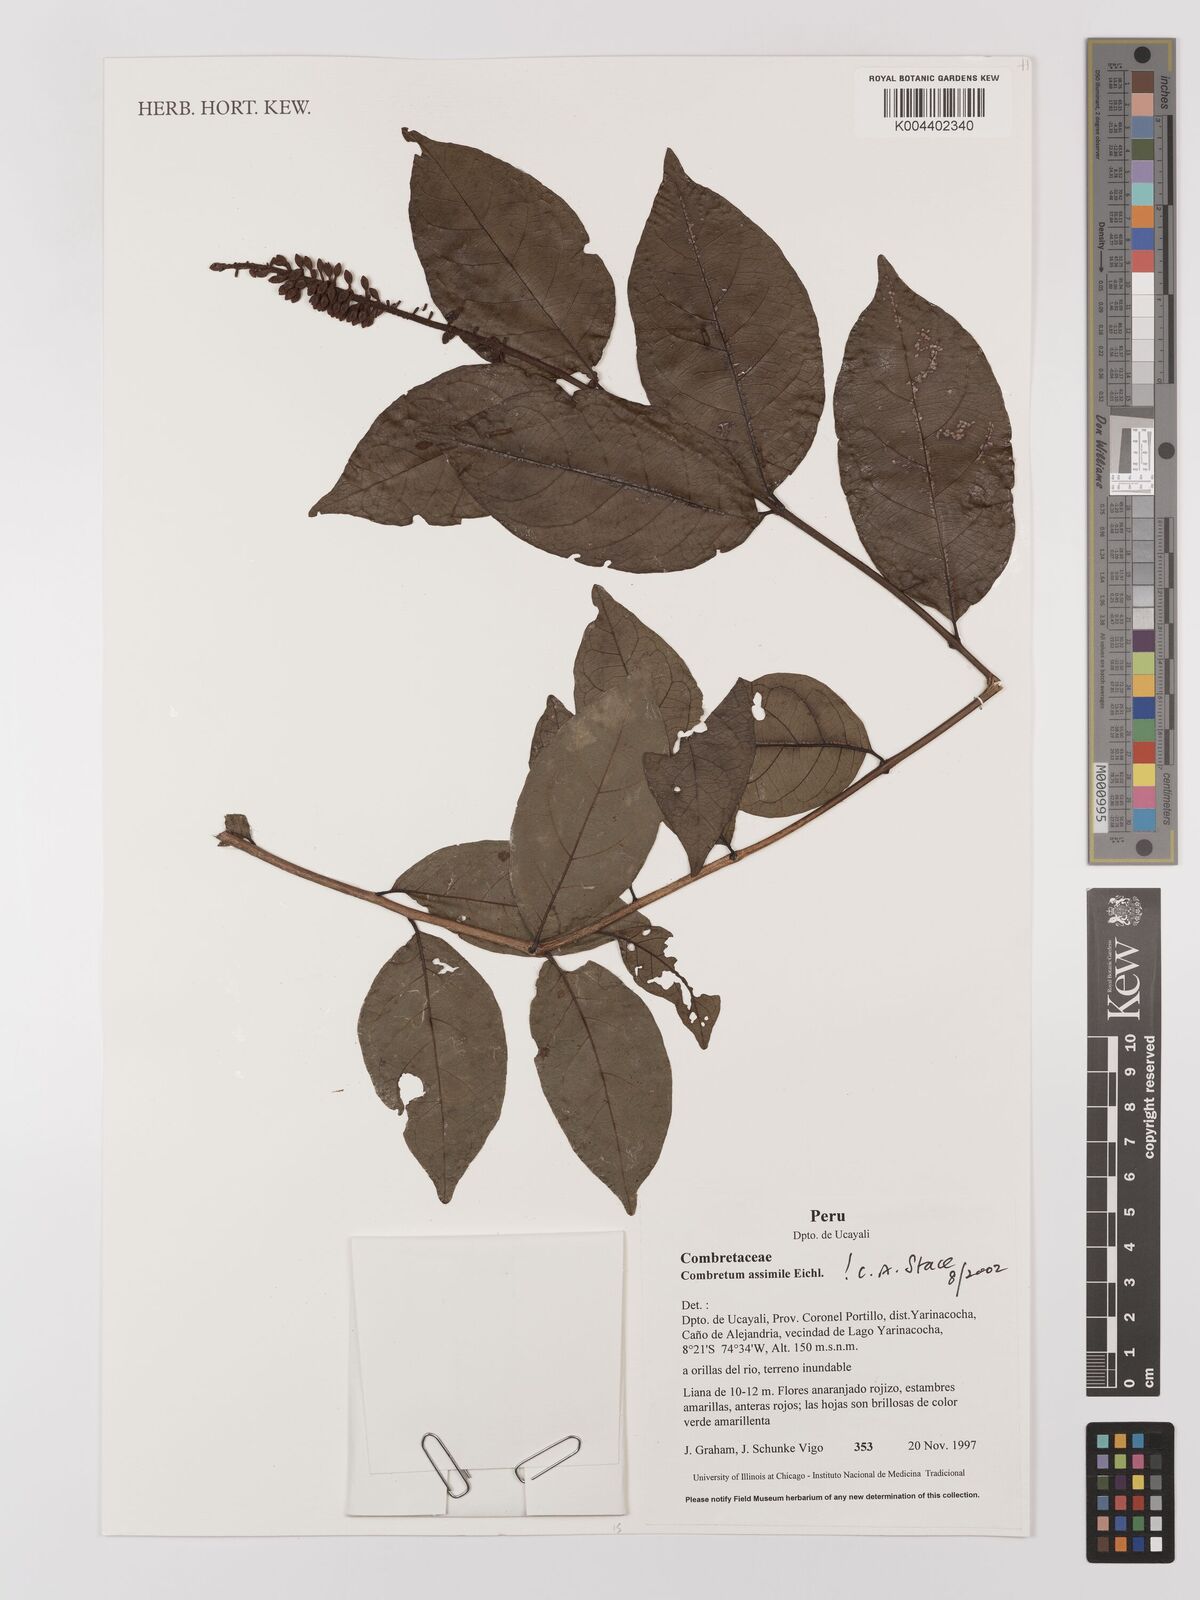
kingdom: Plantae
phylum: Tracheophyta
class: Magnoliopsida
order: Myrtales
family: Combretaceae
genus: Combretum
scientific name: Combretum assimile
